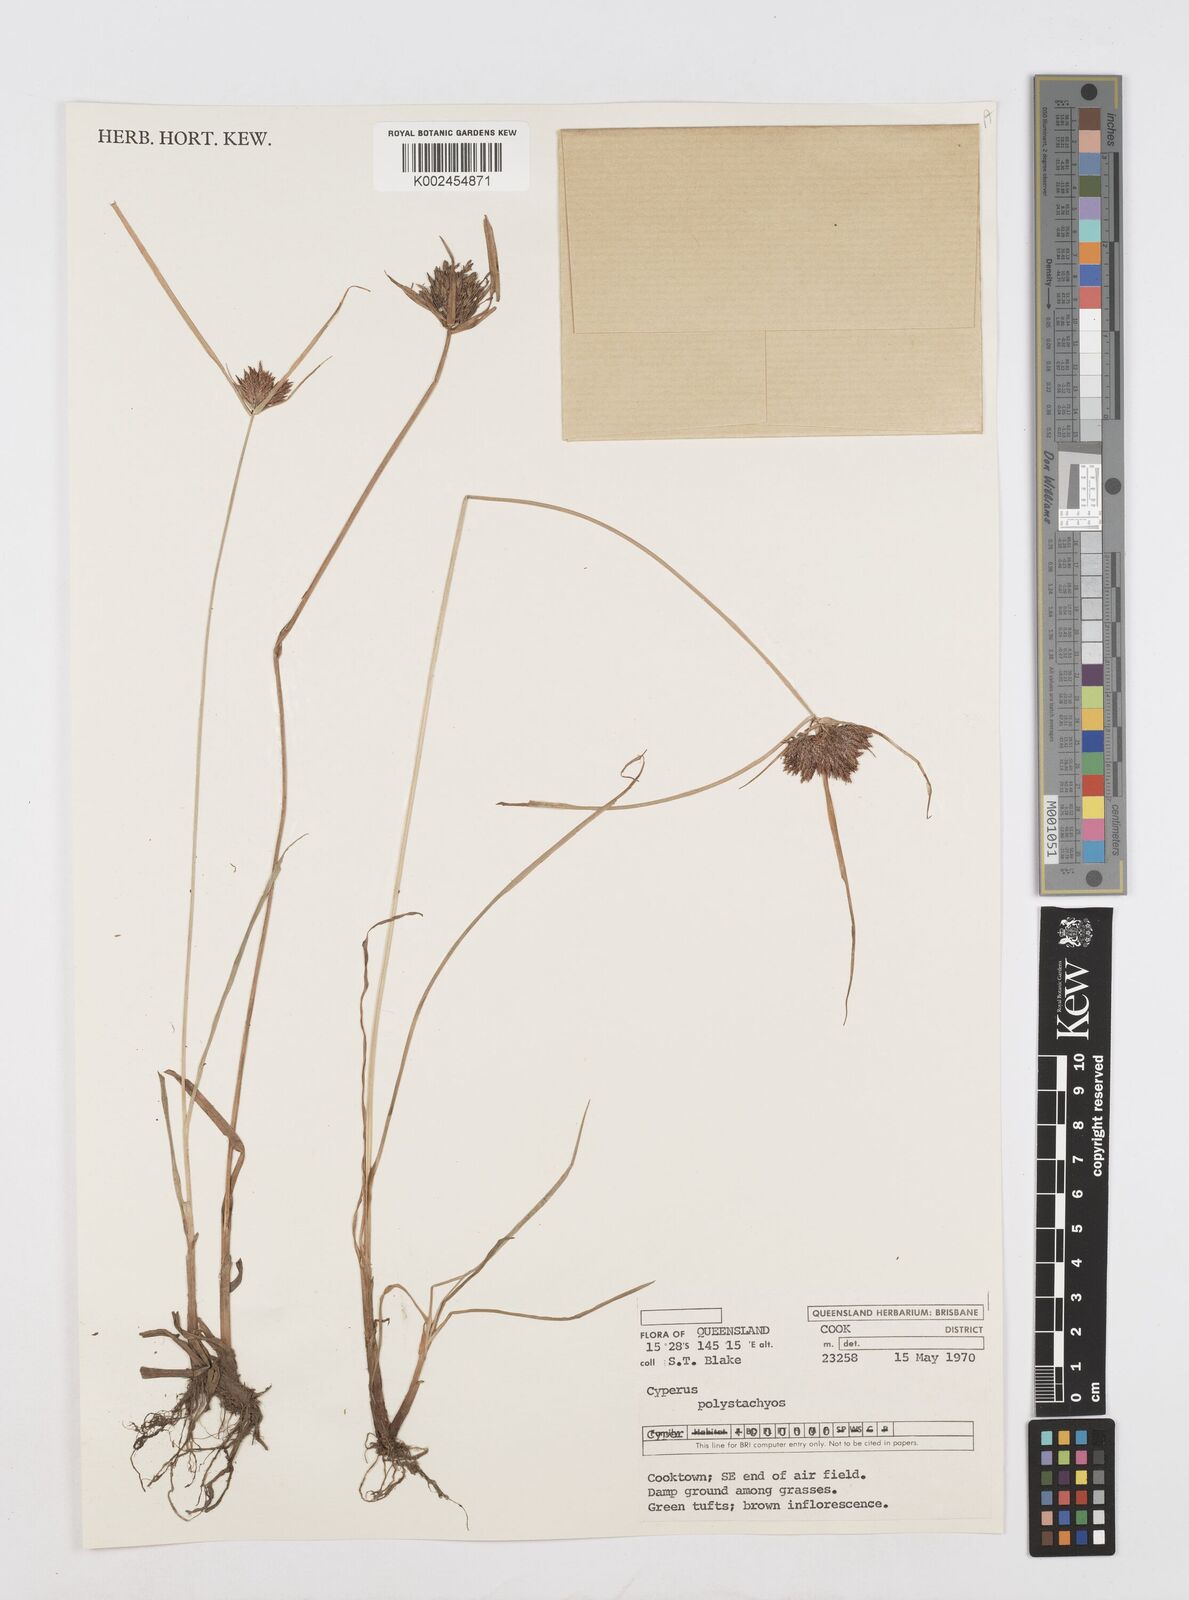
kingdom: Plantae
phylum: Tracheophyta
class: Liliopsida
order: Poales
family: Cyperaceae
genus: Cyperus
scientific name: Cyperus polystachyos
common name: Bunchy flat sedge
